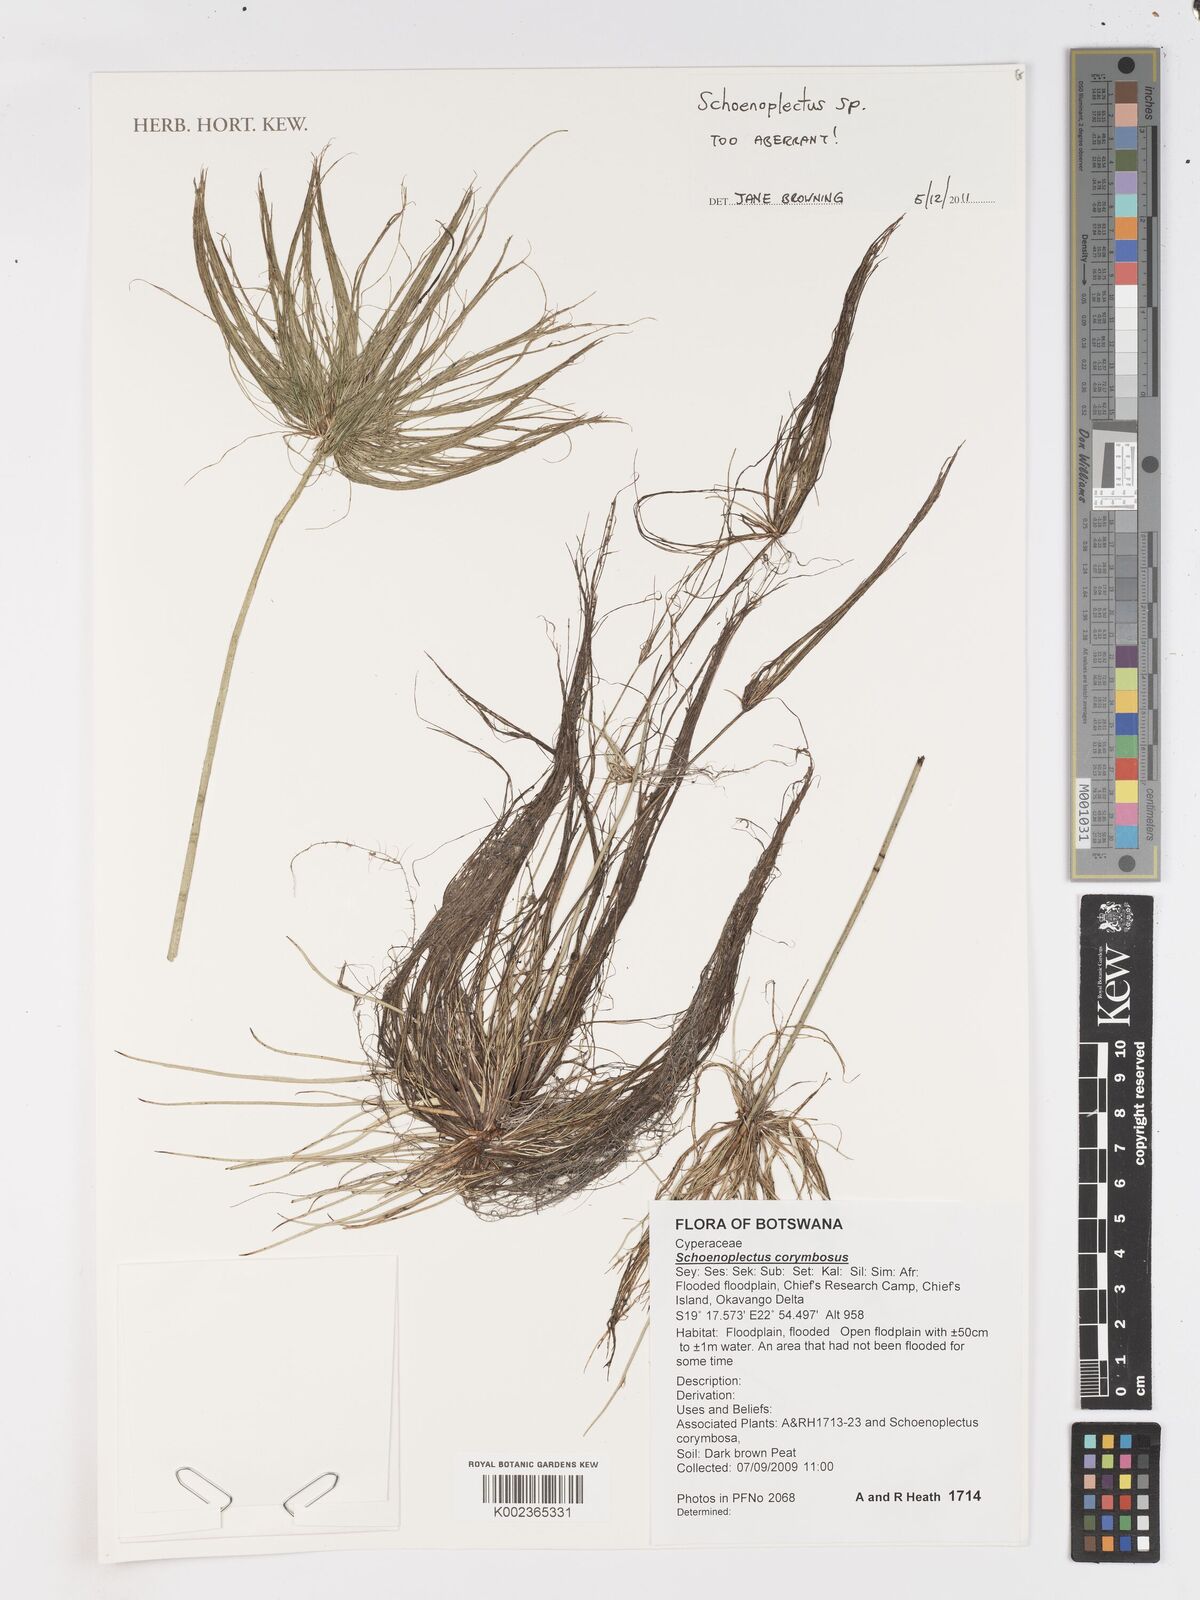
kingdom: Plantae
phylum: Tracheophyta
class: Liliopsida
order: Poales
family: Cyperaceae
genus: Schoenoplectus
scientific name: Schoenoplectus
